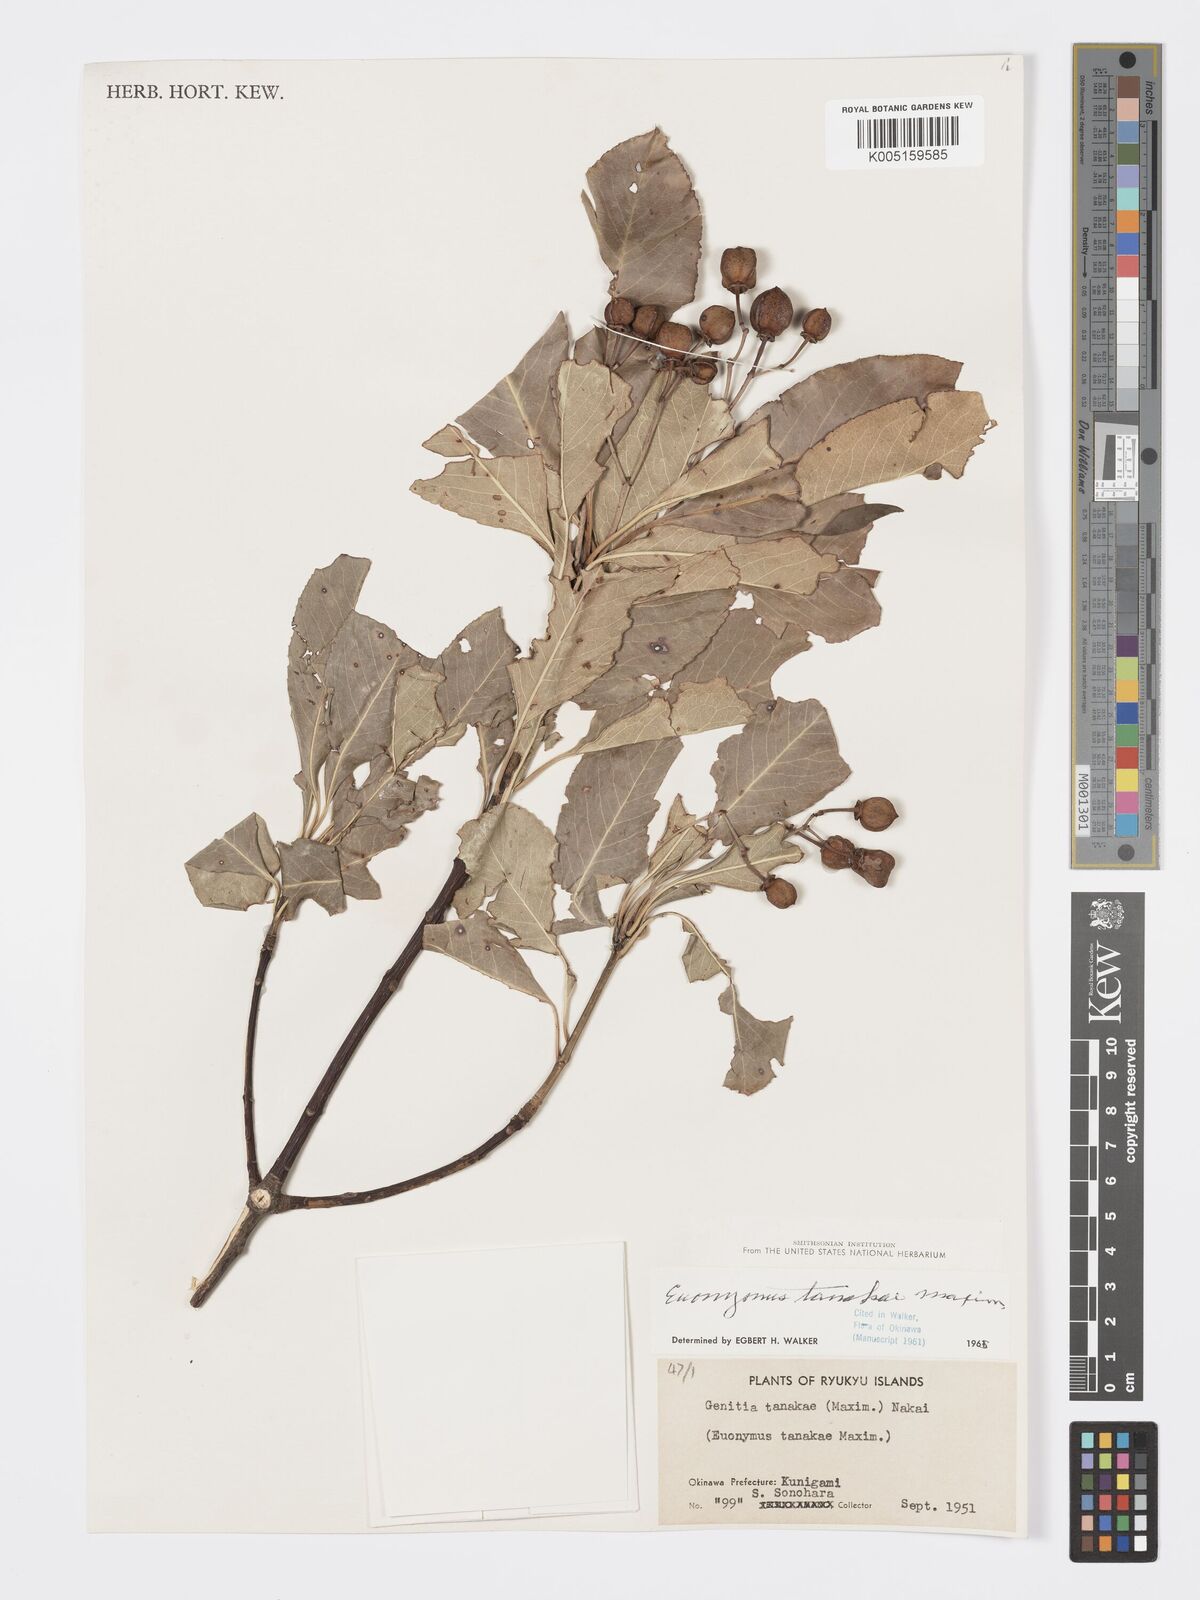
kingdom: Plantae
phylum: Tracheophyta
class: Magnoliopsida
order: Celastrales
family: Celastraceae
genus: Euonymus
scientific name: Euonymus carnosus
